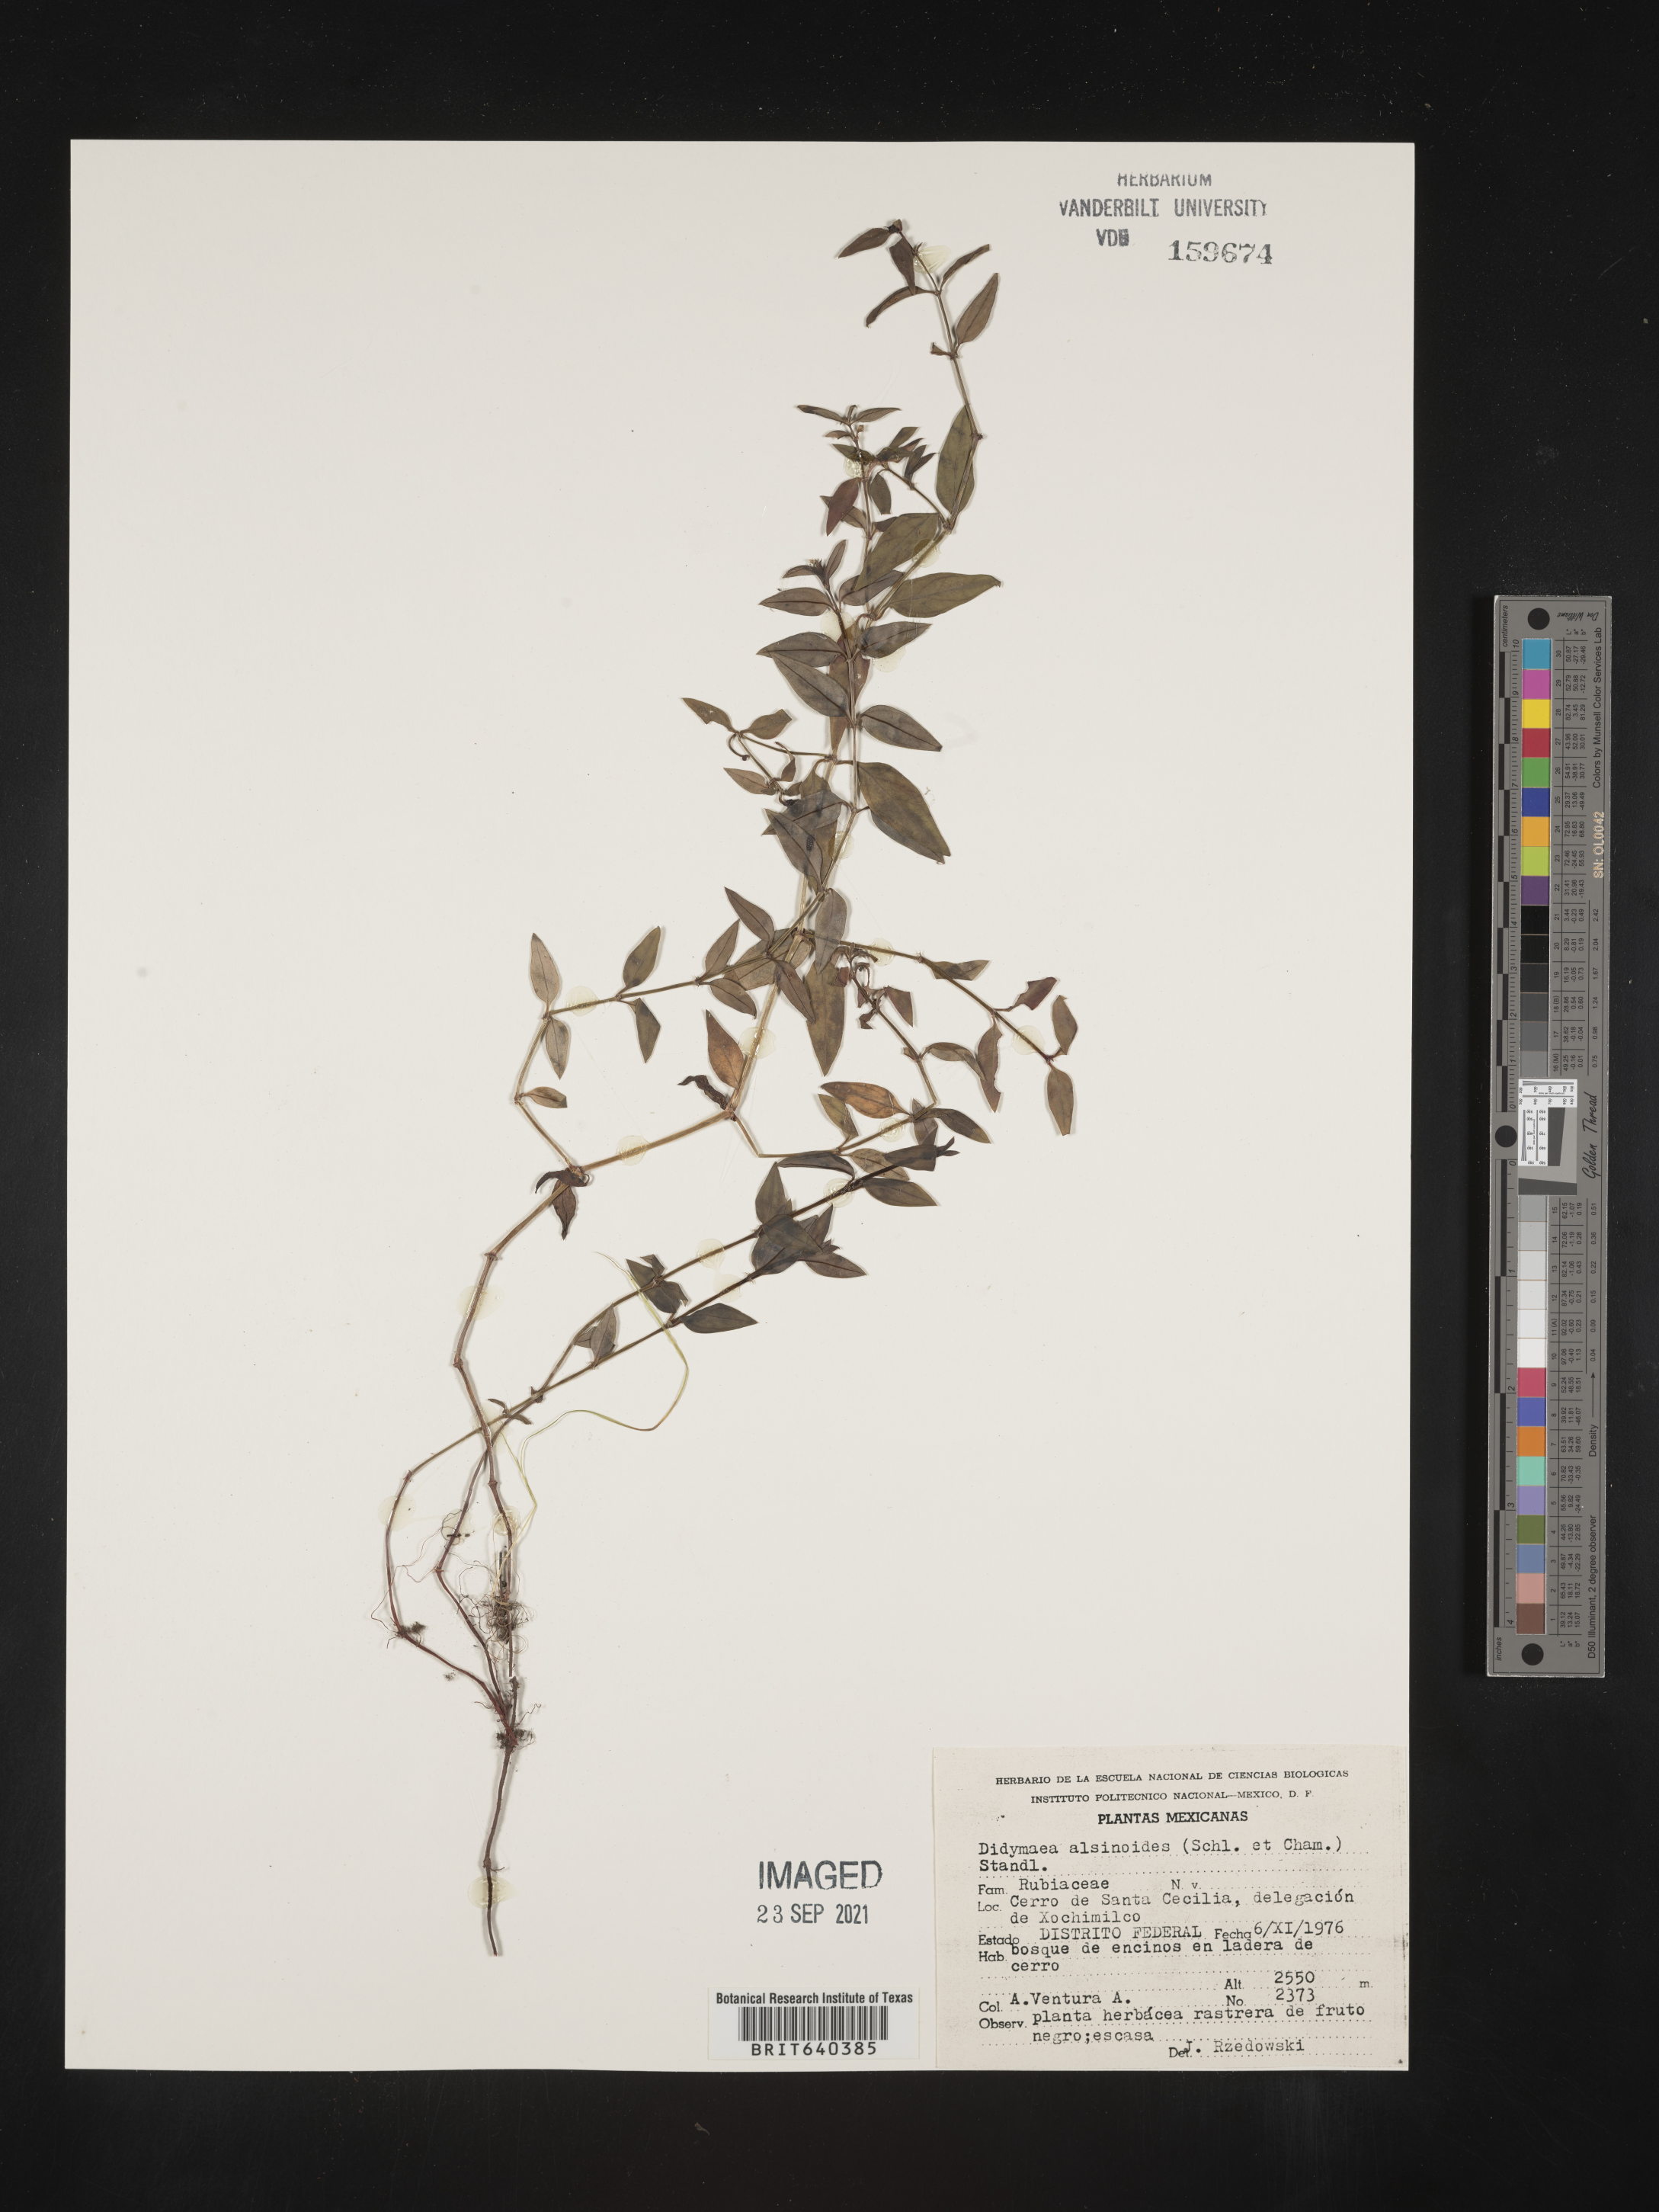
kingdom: Plantae
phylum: Tracheophyta
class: Magnoliopsida
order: Gentianales
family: Rubiaceae
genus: Didymaea
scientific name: Didymaea
